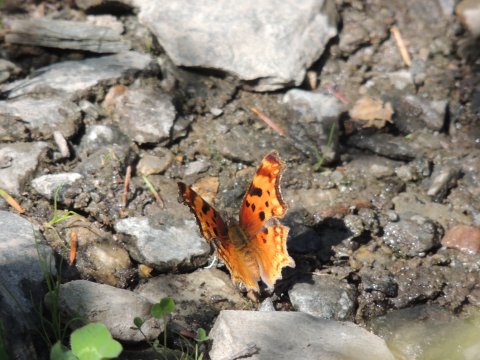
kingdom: Animalia
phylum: Arthropoda
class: Insecta
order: Lepidoptera
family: Nymphalidae
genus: Polygonia
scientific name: Polygonia gracilis
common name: Hoary Comma
